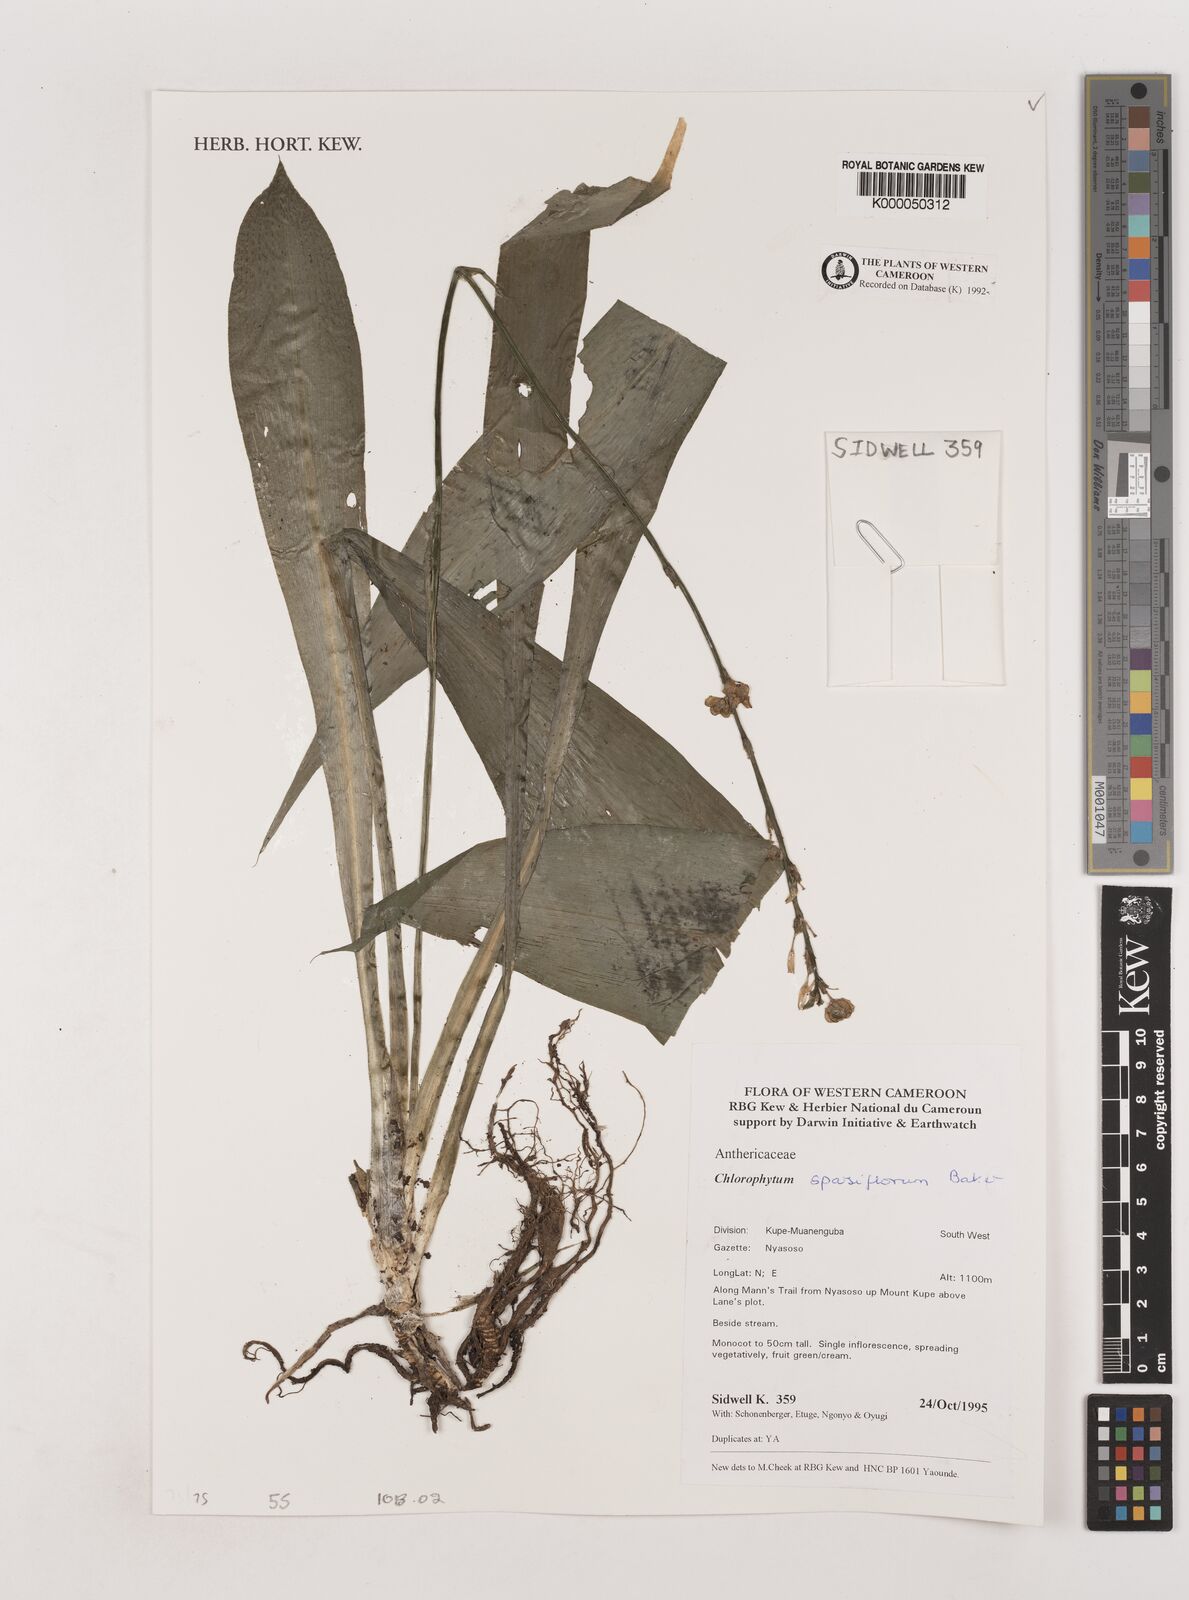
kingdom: Plantae
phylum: Tracheophyta
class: Liliopsida
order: Asparagales
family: Asparagaceae
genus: Chlorophytum
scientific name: Chlorophytum sparsiflorum
